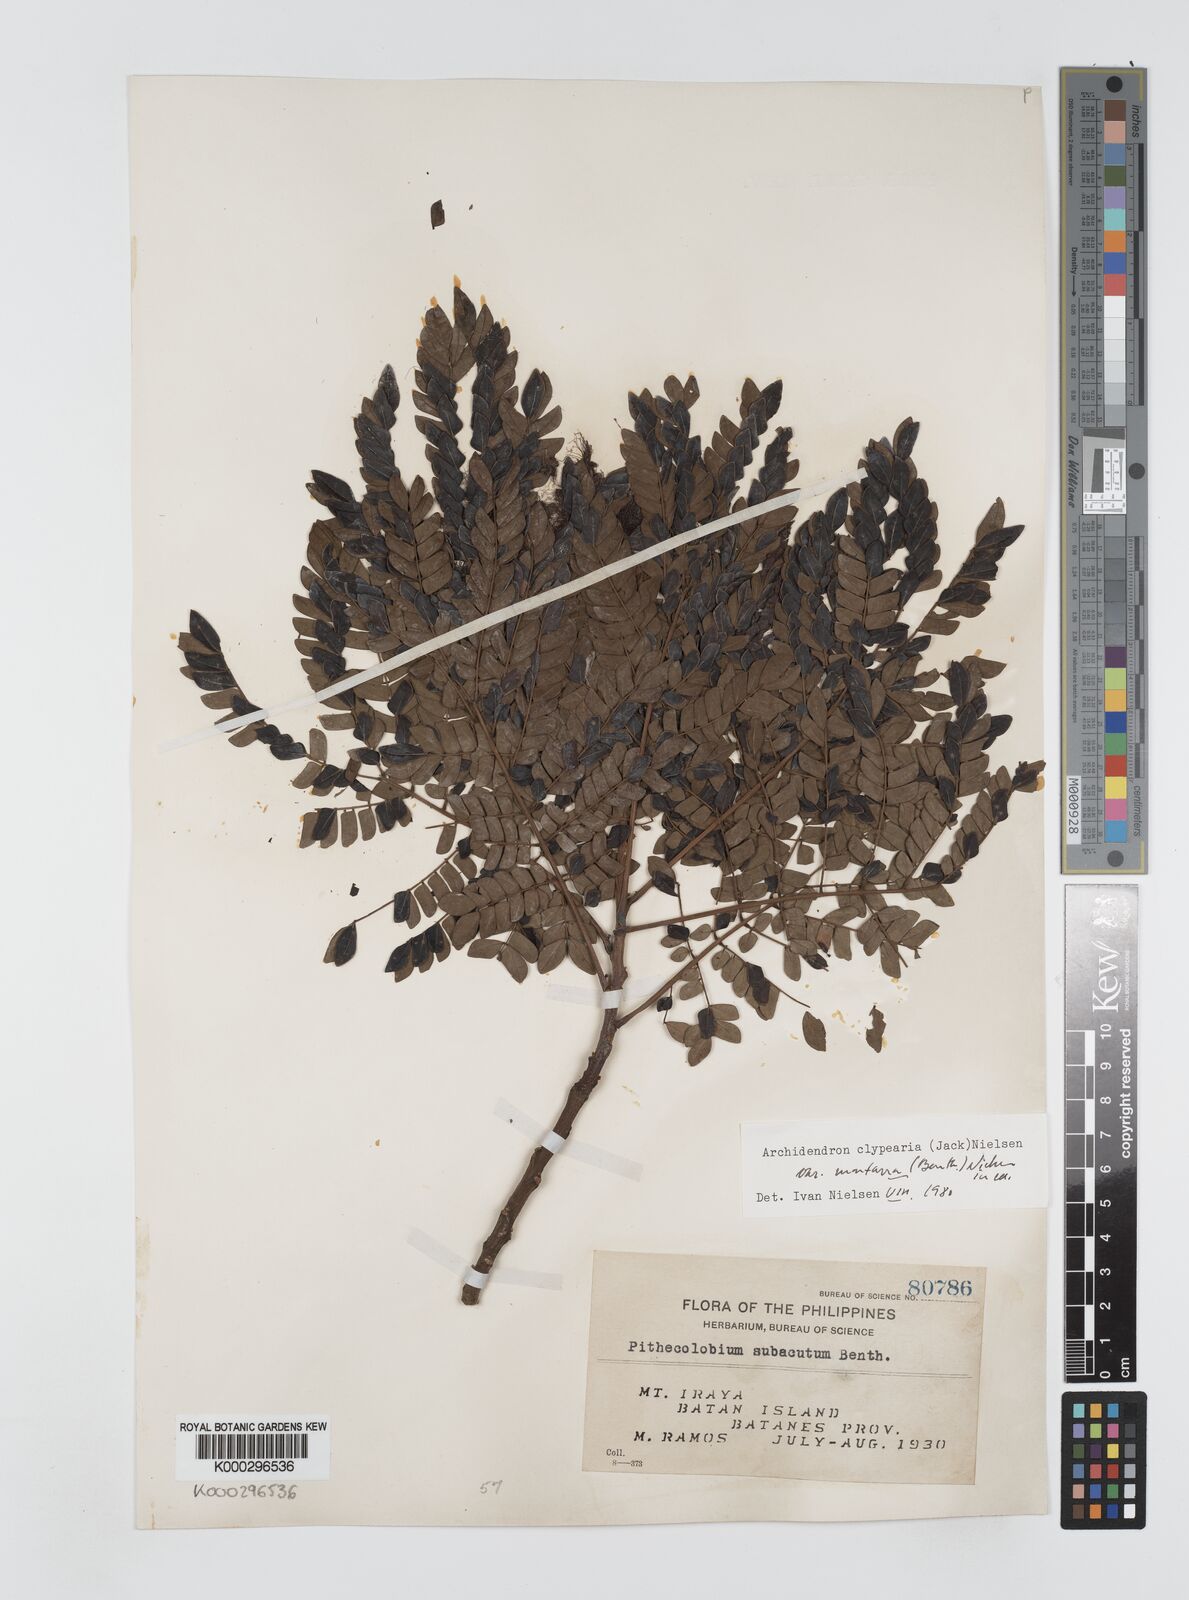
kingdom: Plantae
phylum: Tracheophyta
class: Magnoliopsida
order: Fabales
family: Fabaceae
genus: Archidendron
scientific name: Archidendron clypearia
